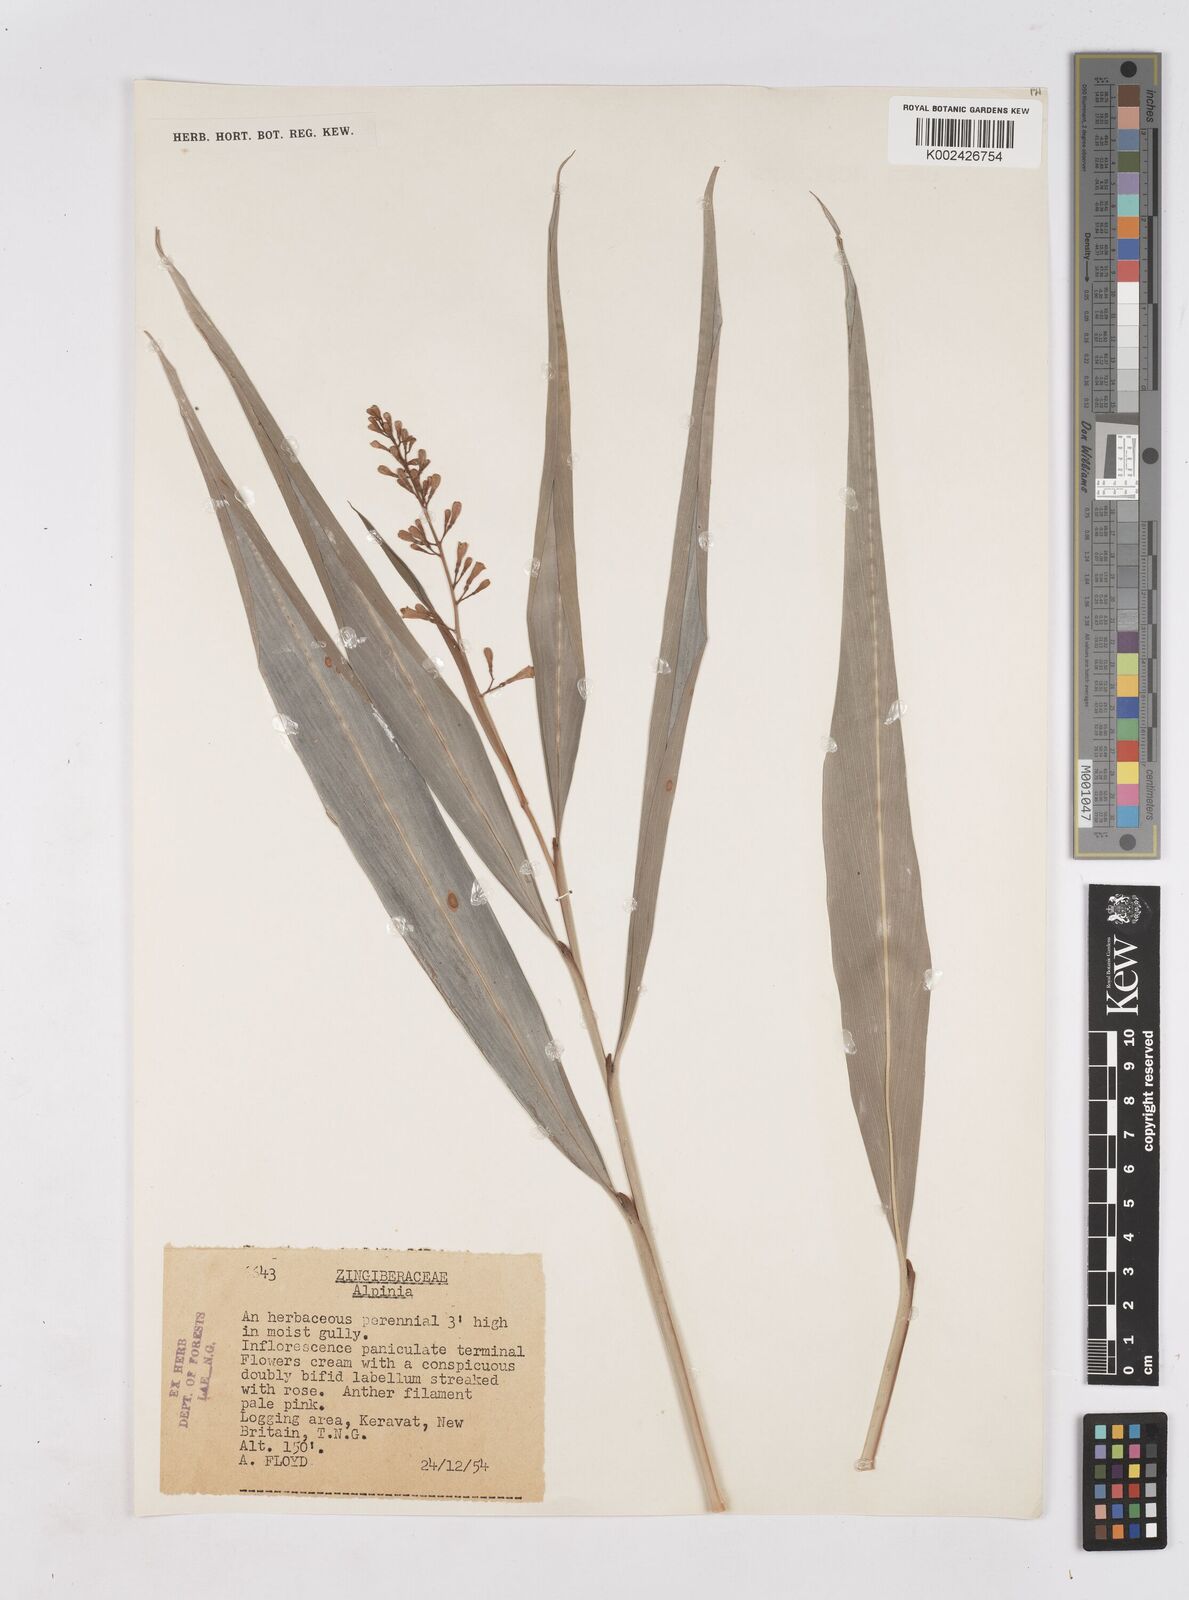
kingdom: Plantae
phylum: Tracheophyta
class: Liliopsida
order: Zingiberales
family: Zingiberaceae
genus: Riedelia
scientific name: Riedelia
